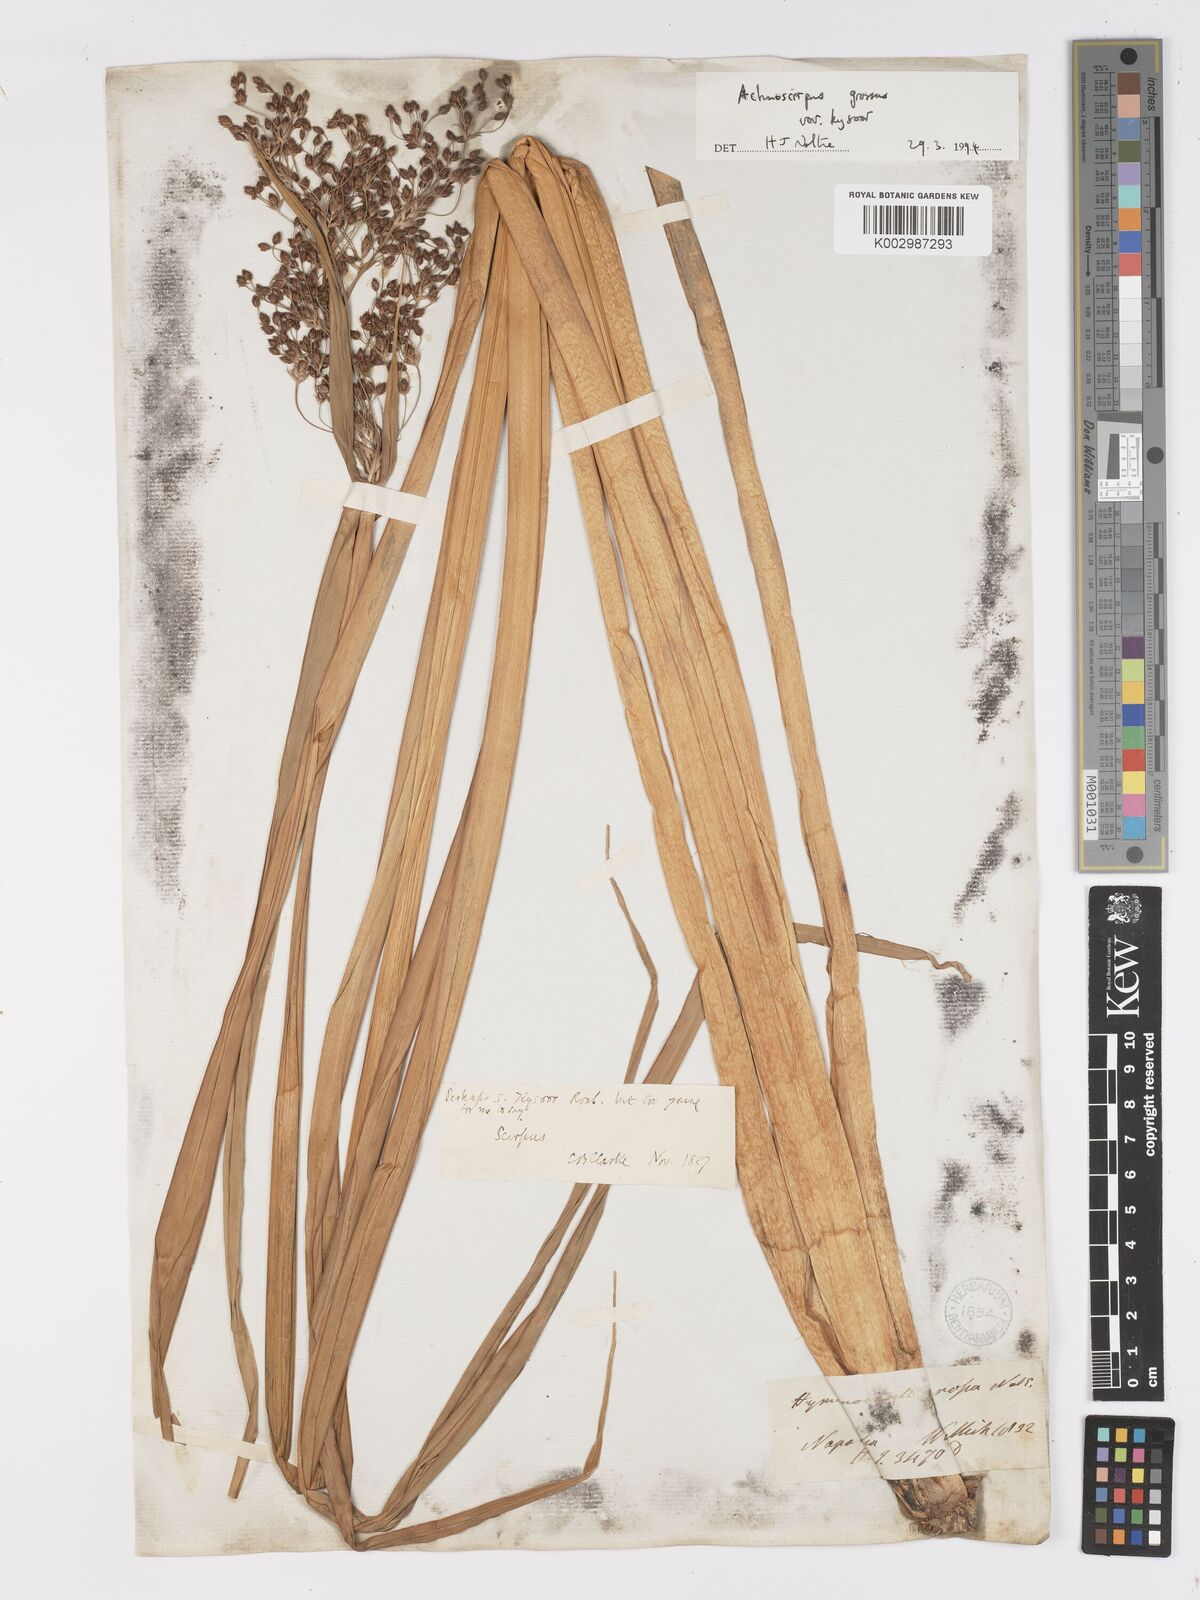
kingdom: Plantae
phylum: Tracheophyta
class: Liliopsida
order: Poales
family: Cyperaceae
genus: Actinoscirpus
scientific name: Actinoscirpus grossus
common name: Giant bur rush
